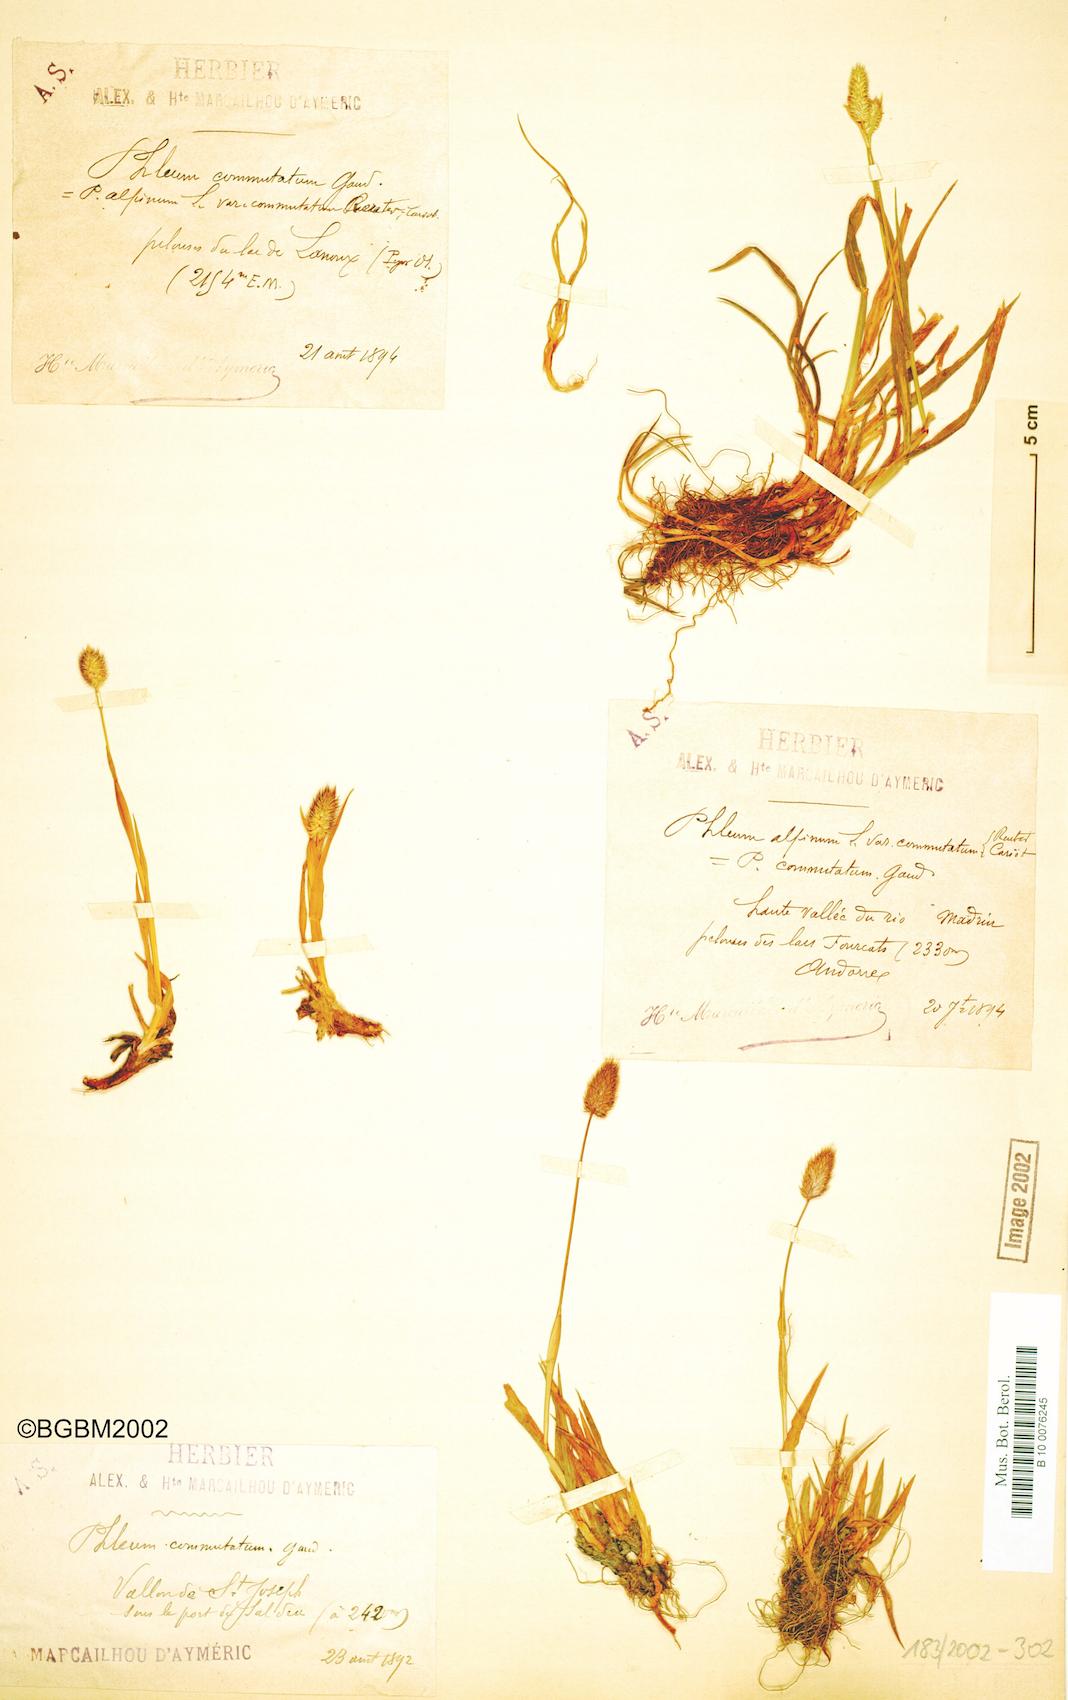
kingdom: Plantae
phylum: Tracheophyta
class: Liliopsida
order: Poales
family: Poaceae
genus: Phleum
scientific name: Phleum alpinum
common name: Alpine cat's-tail
